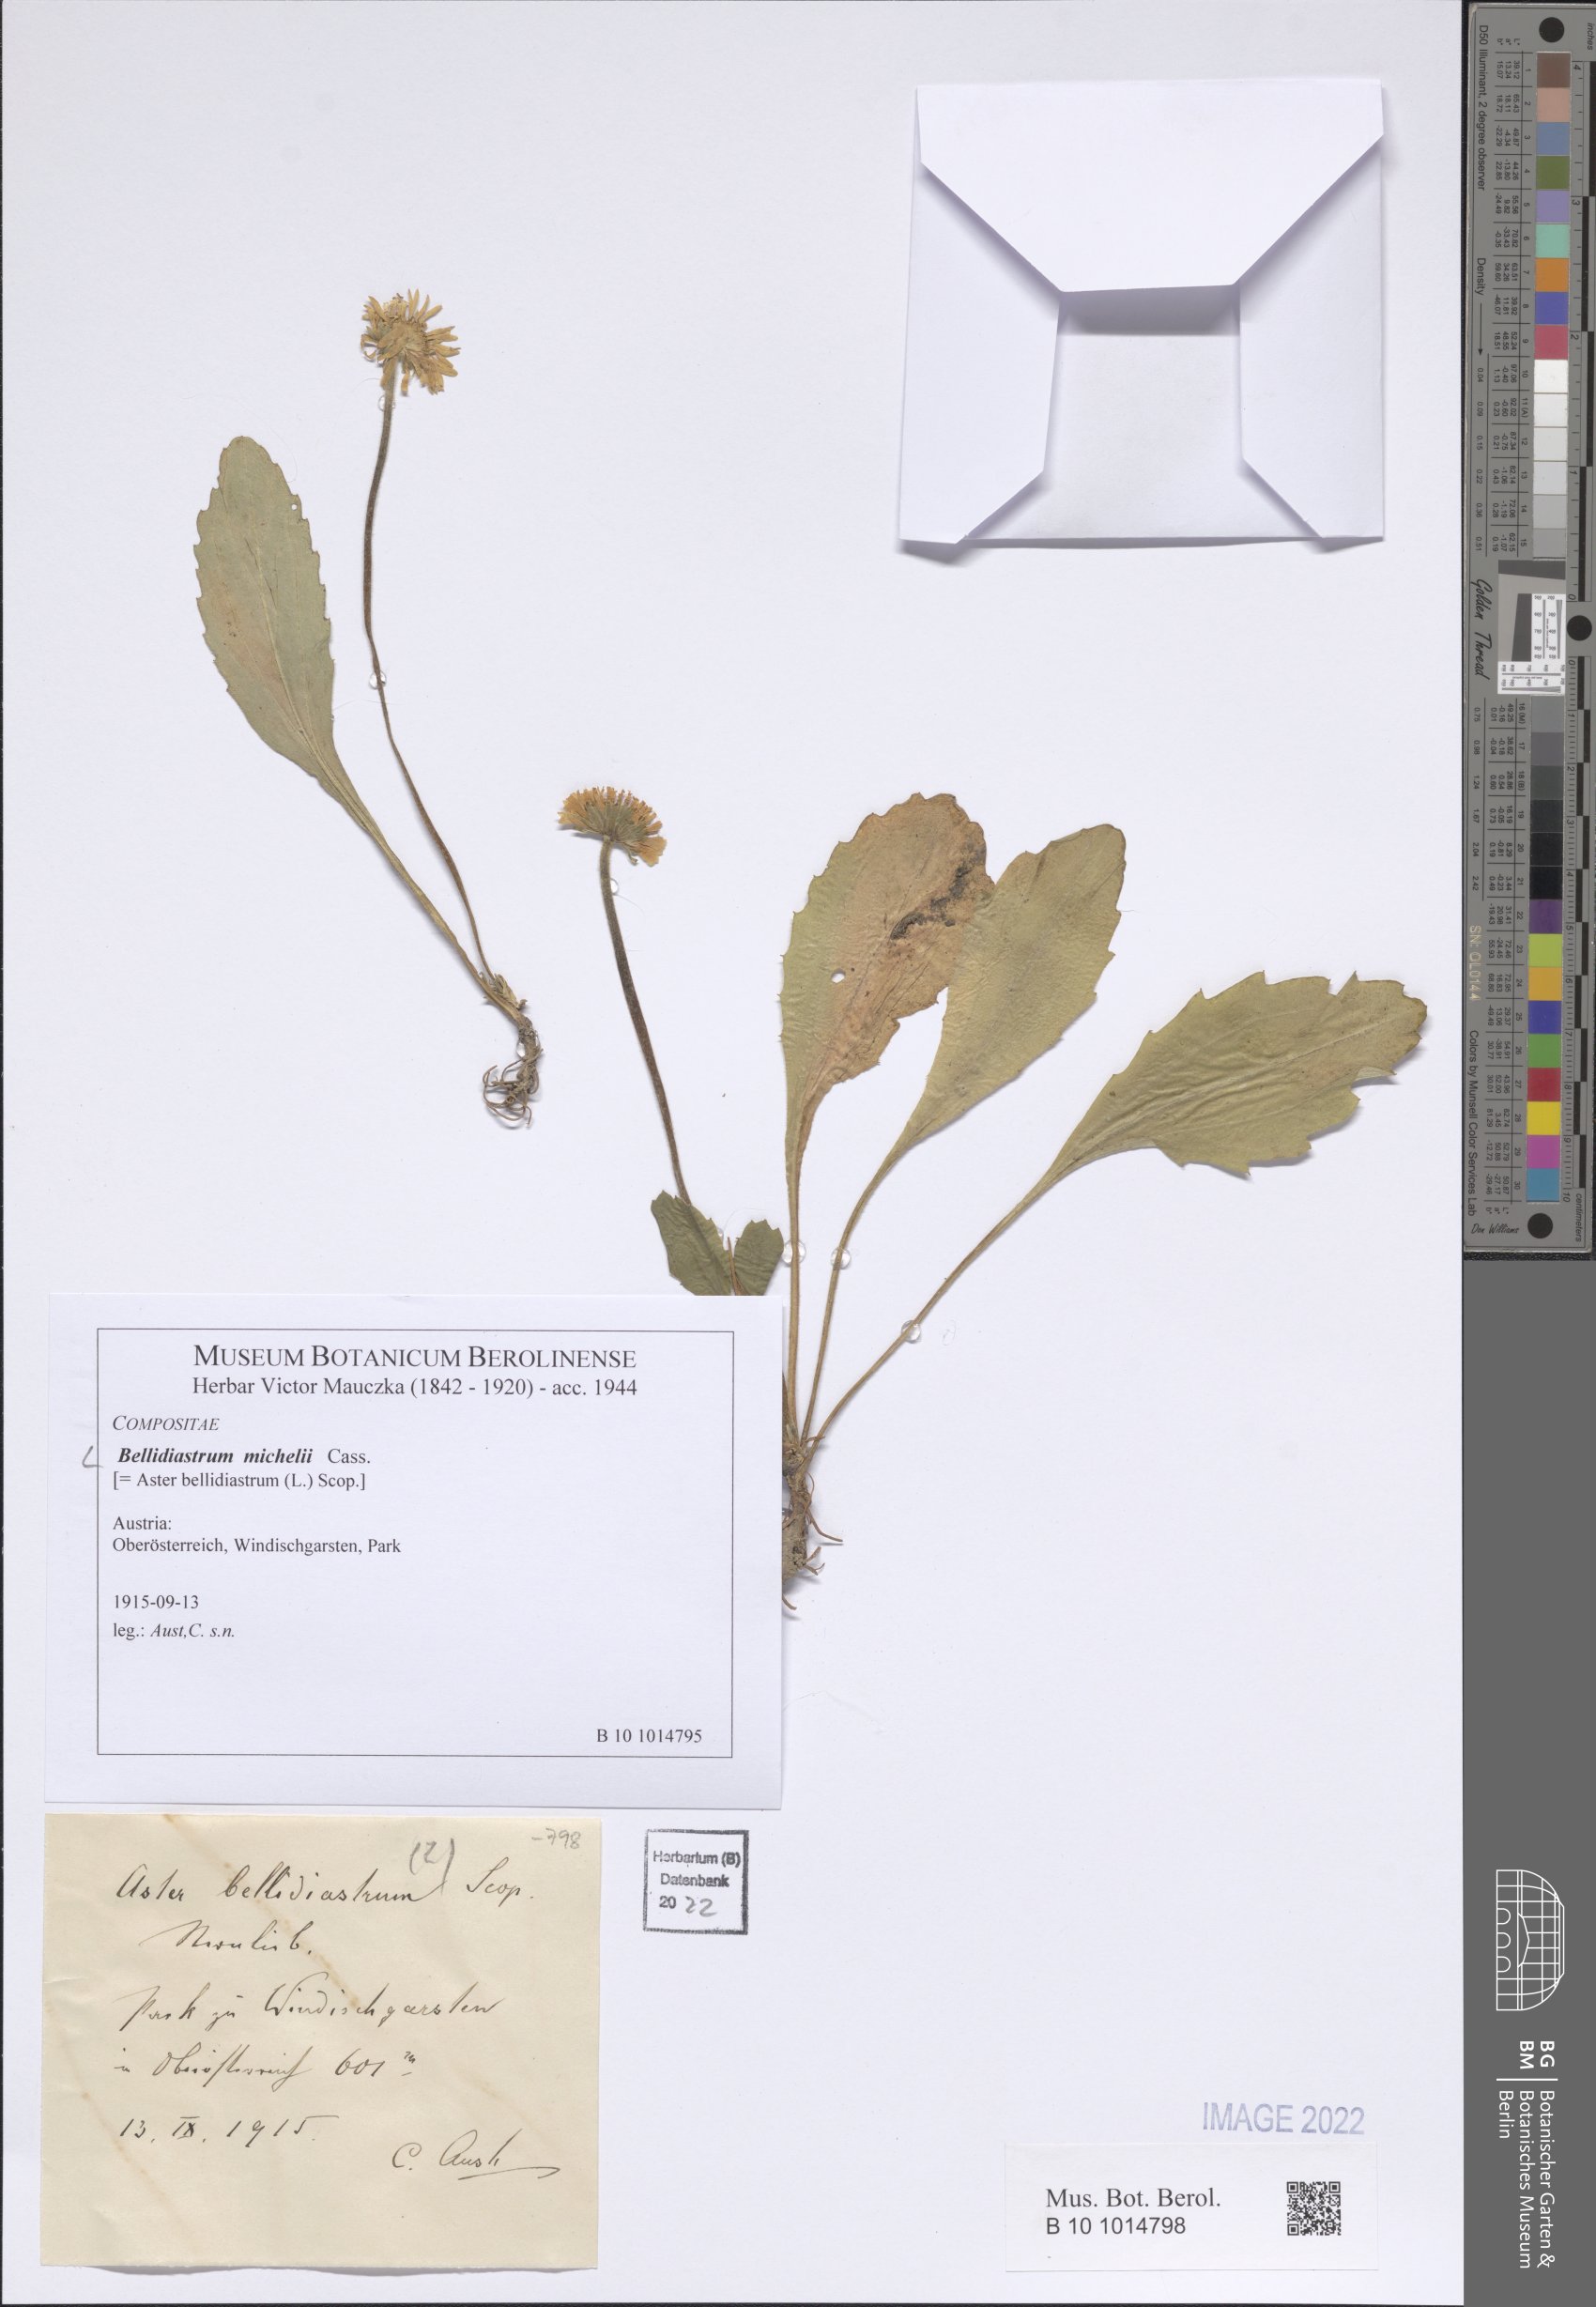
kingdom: Plantae
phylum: Tracheophyta
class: Magnoliopsida
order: Asterales
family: Asteraceae
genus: Bellidiastrum
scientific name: Bellidiastrum michelii
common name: Daisy-star aster
